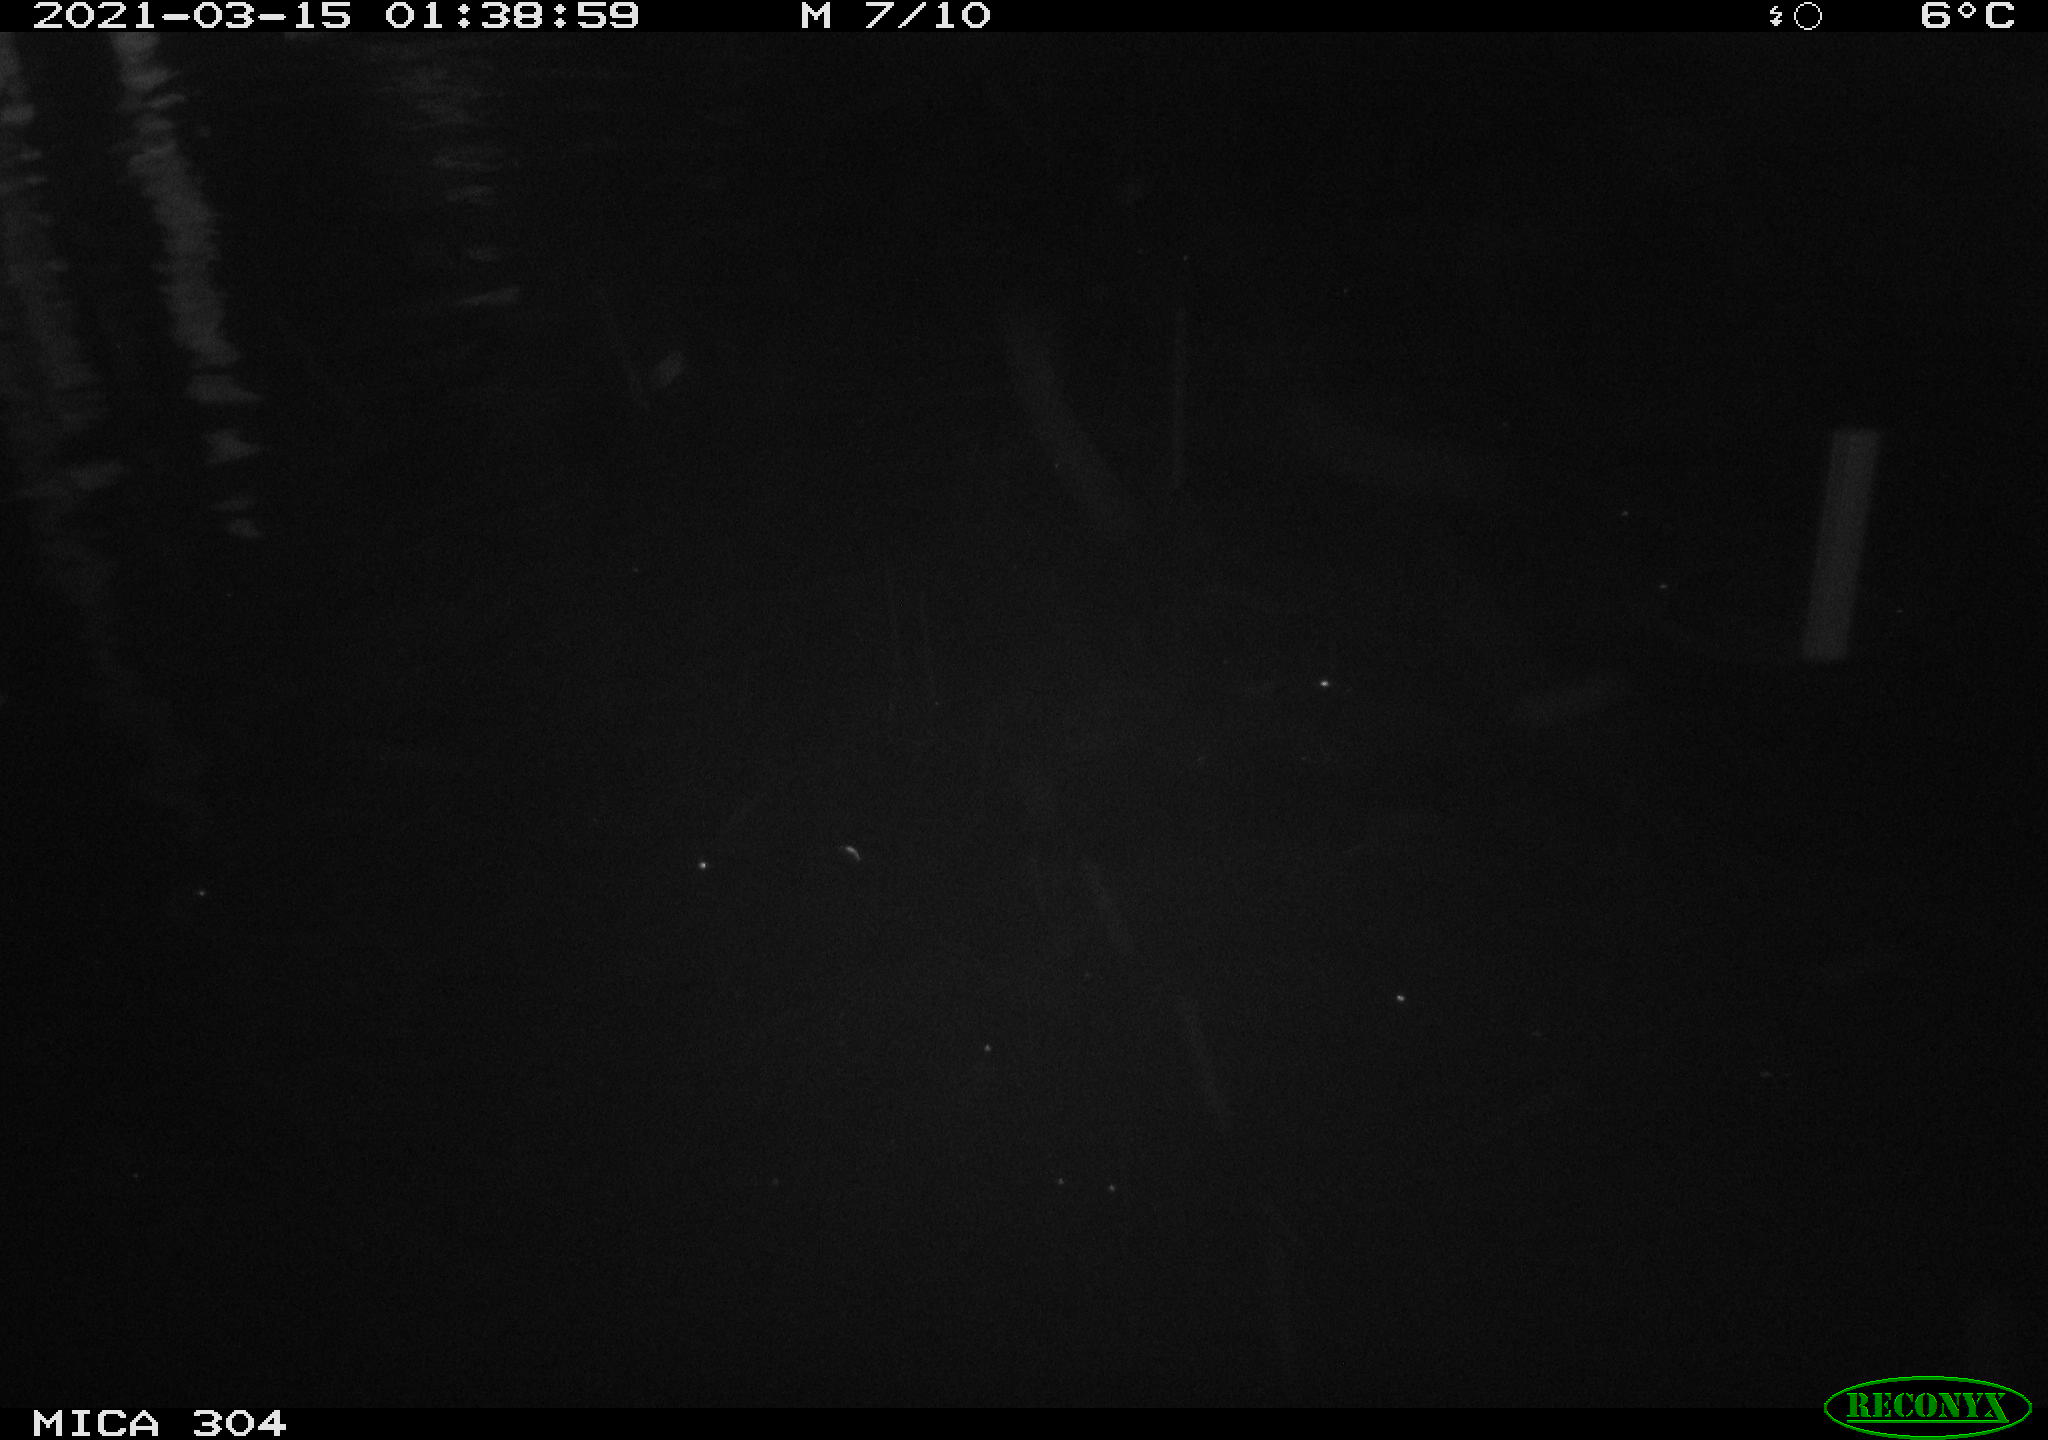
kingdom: Animalia
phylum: Chordata
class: Mammalia
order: Rodentia
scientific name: Rodentia
